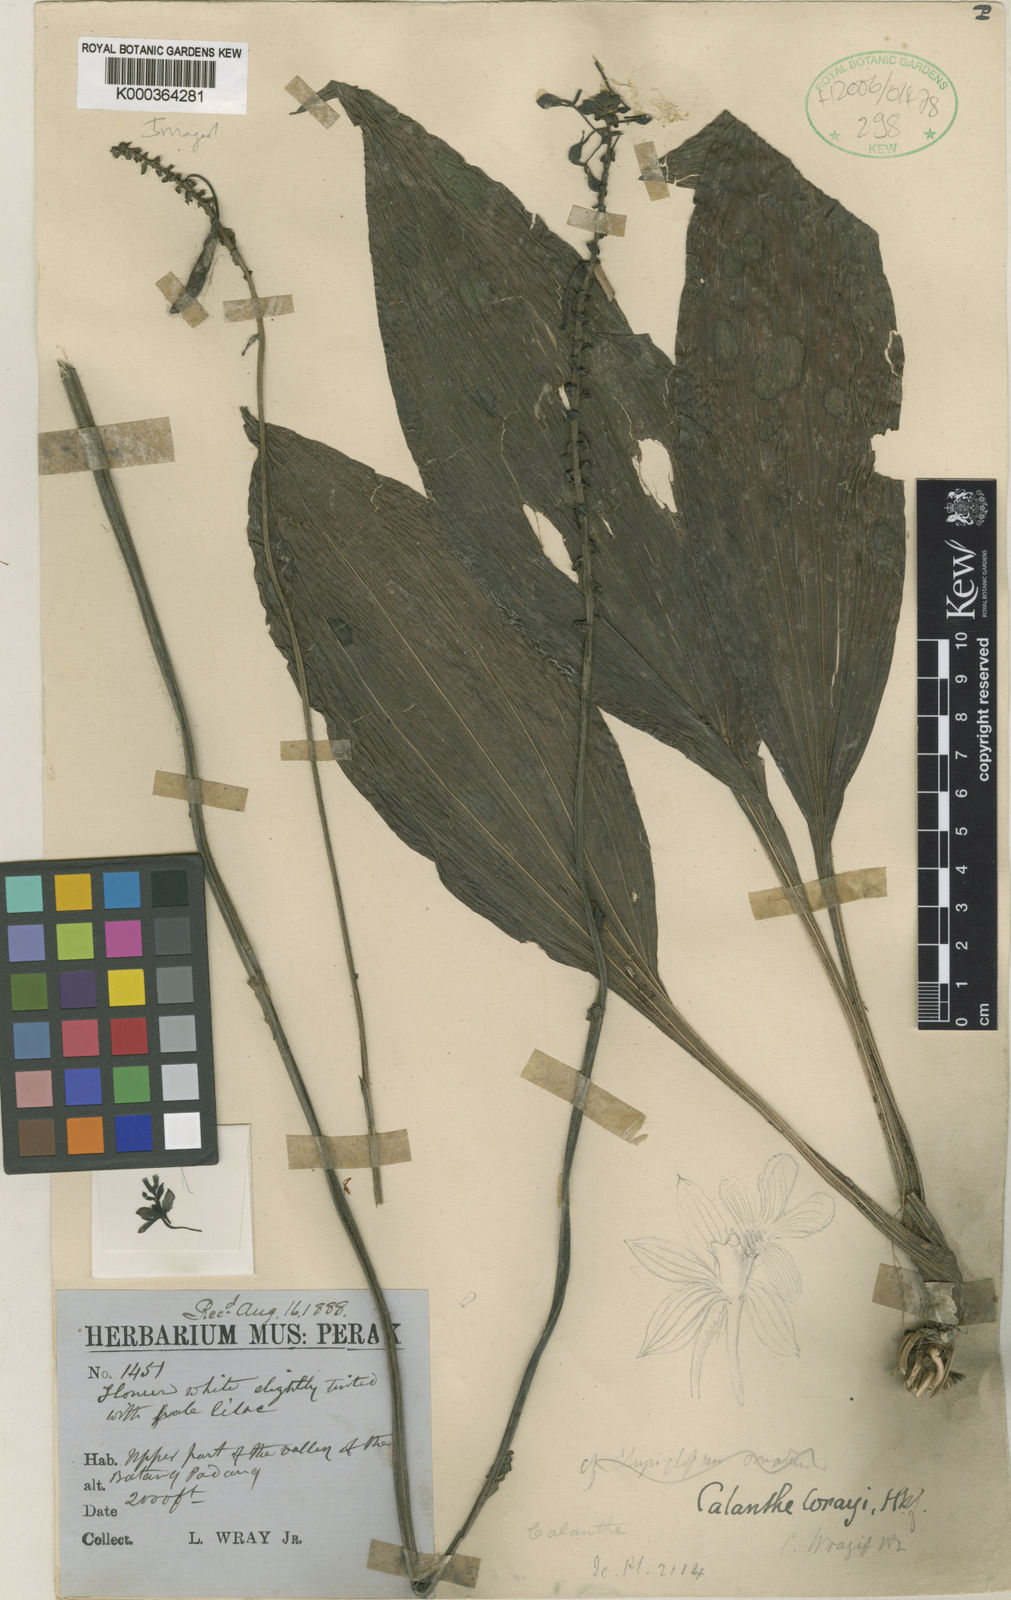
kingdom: Plantae
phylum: Tracheophyta
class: Liliopsida
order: Asparagales
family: Orchidaceae
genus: Calanthe
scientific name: Calanthe ceciliae
